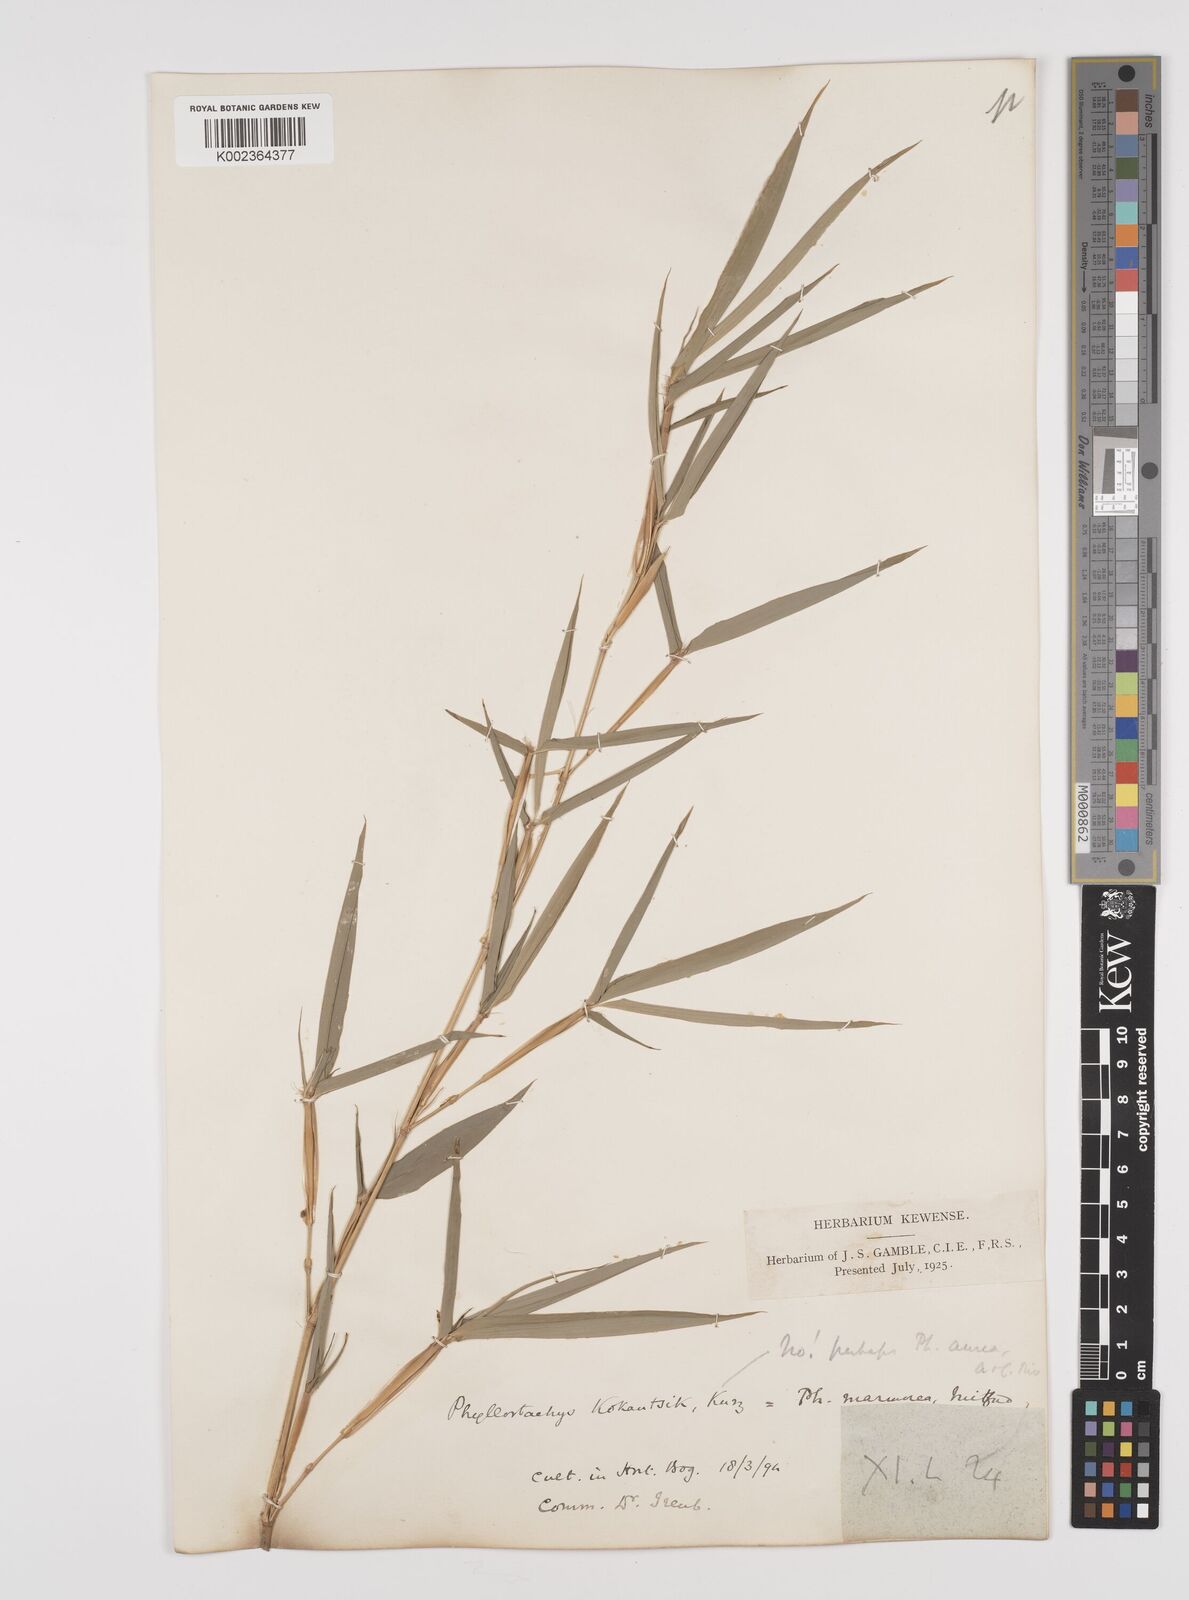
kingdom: Plantae
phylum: Tracheophyta
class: Liliopsida
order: Poales
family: Poaceae
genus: Phyllostachys
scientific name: Phyllostachys aurea
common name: Golden bamboo
